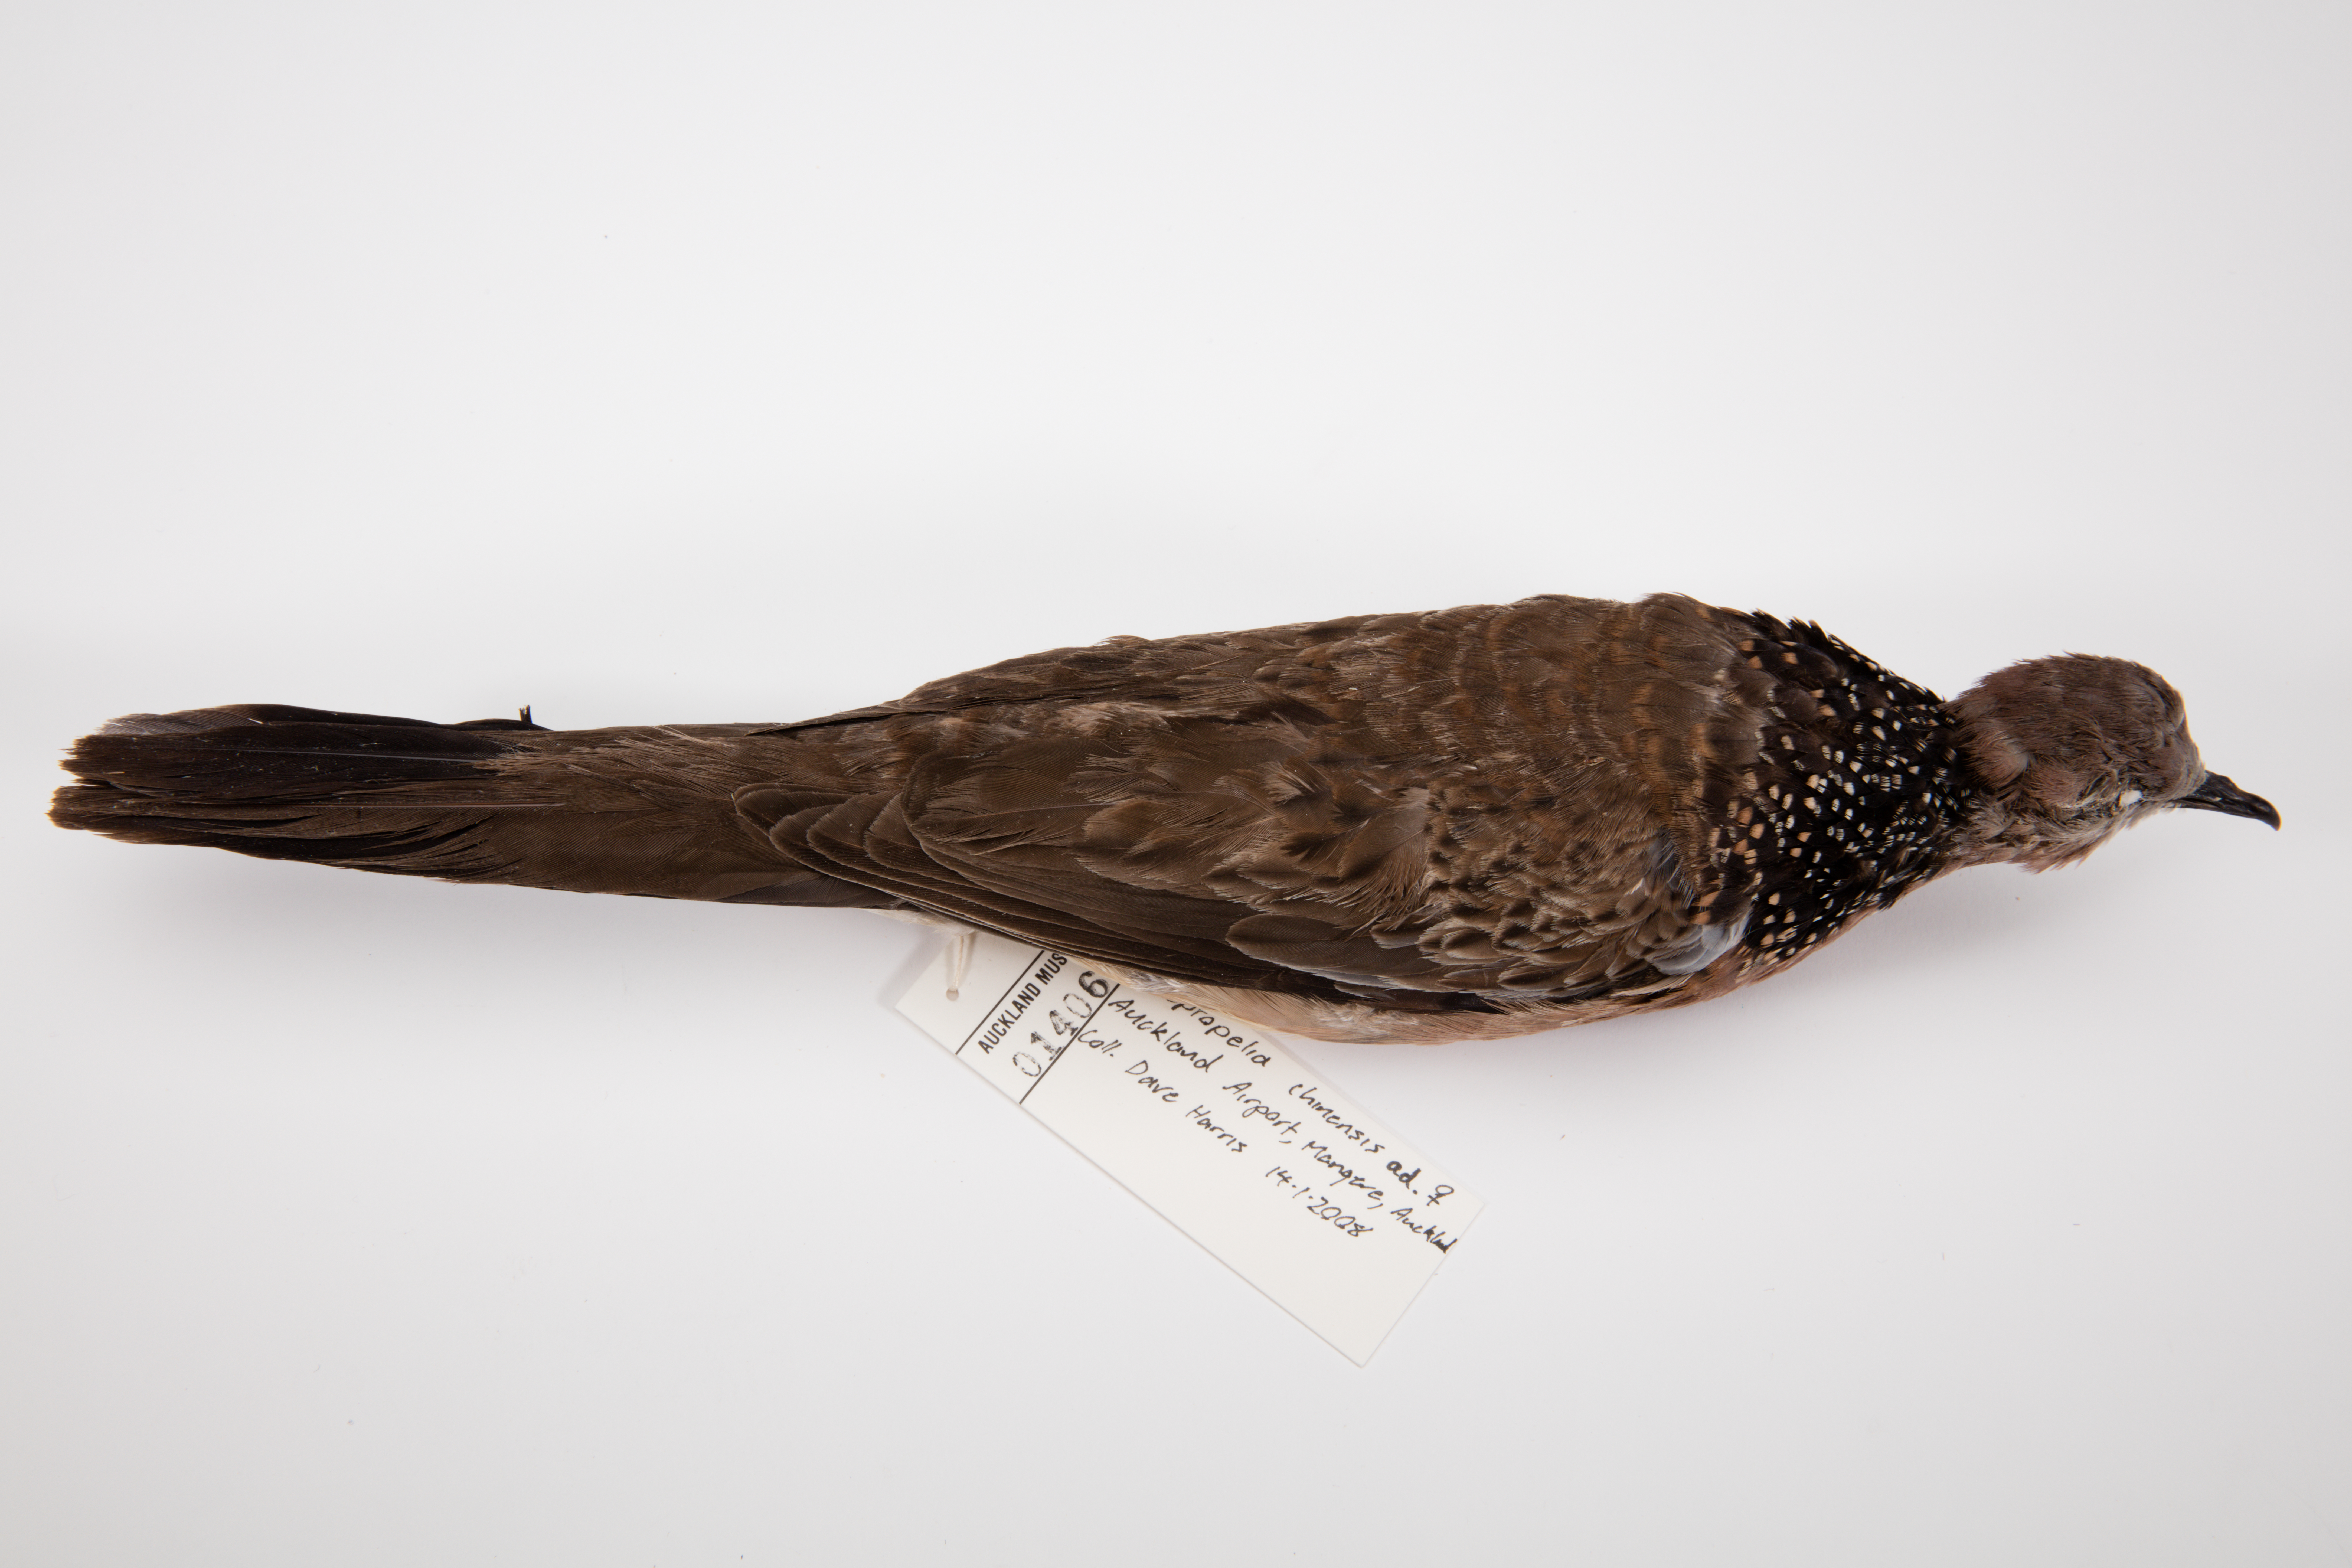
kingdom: Animalia
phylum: Chordata
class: Aves
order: Columbiformes
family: Columbidae
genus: Spilopelia
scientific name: Spilopelia chinensis
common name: Spotted dove
